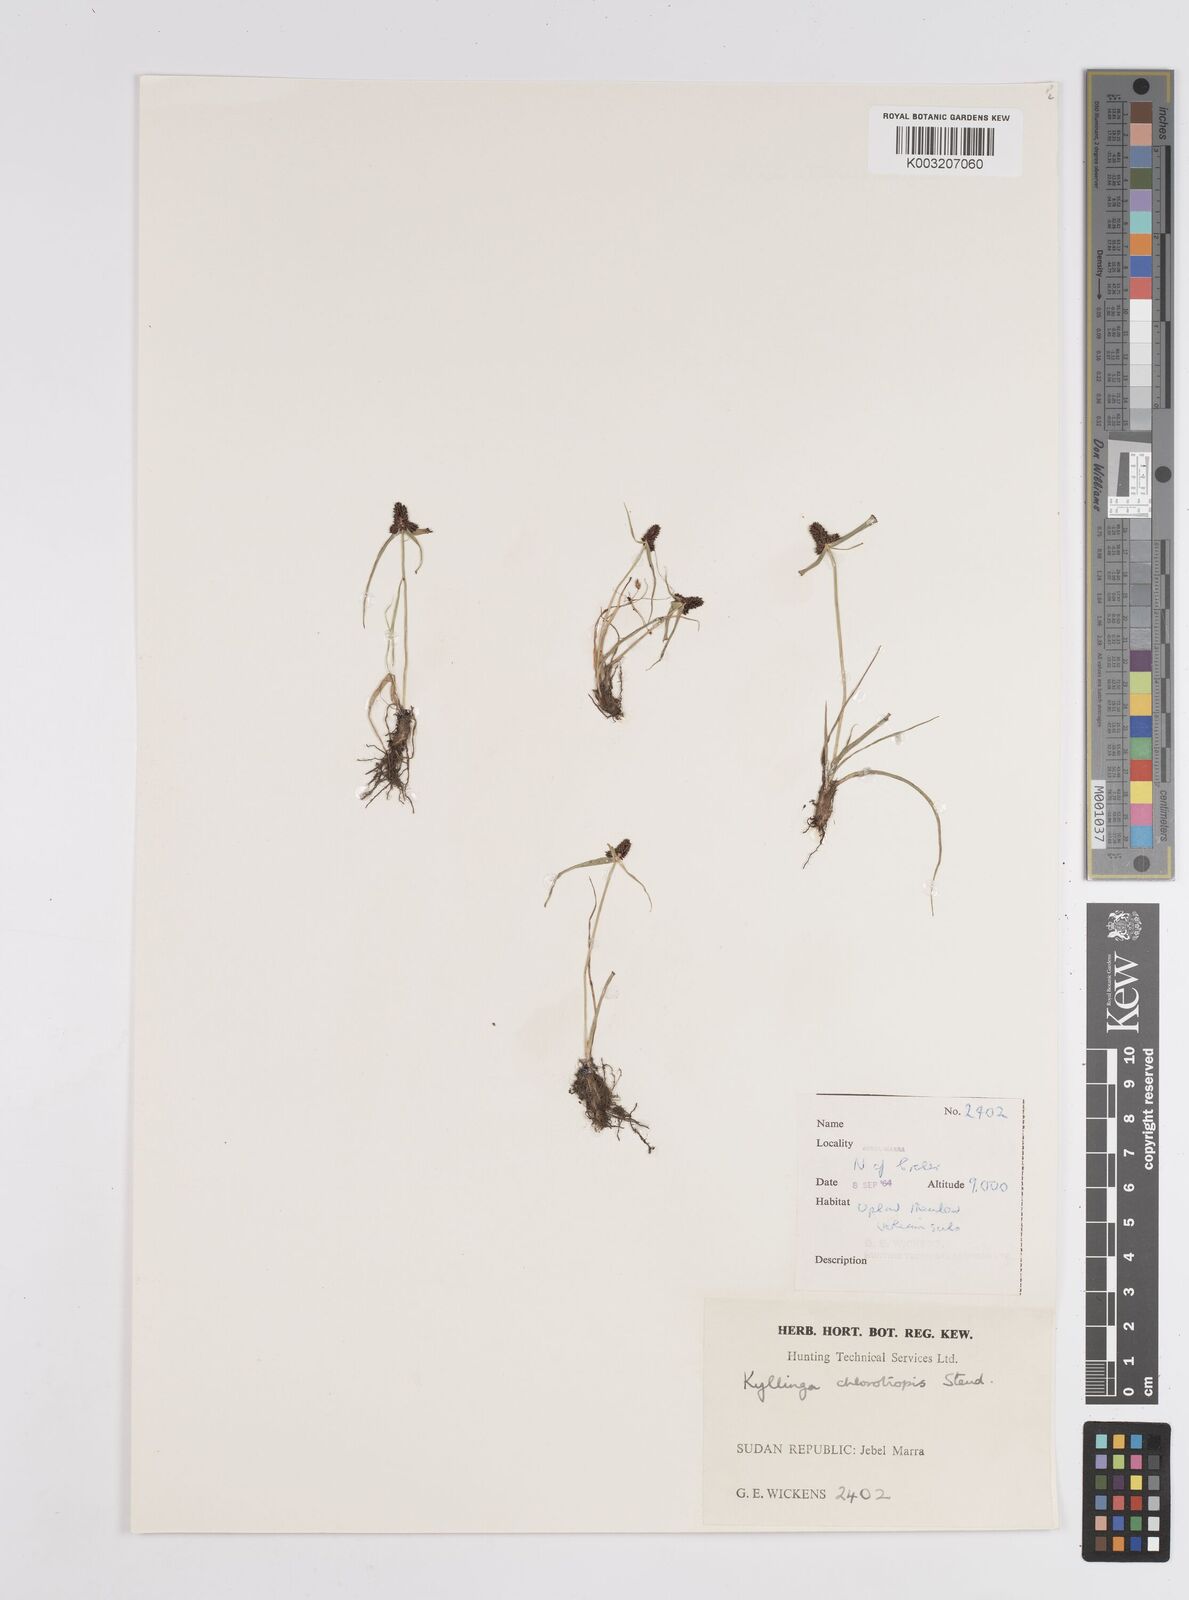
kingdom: Plantae
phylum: Tracheophyta
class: Liliopsida
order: Poales
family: Cyperaceae
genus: Cyperus
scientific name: Cyperus chlorotropis
